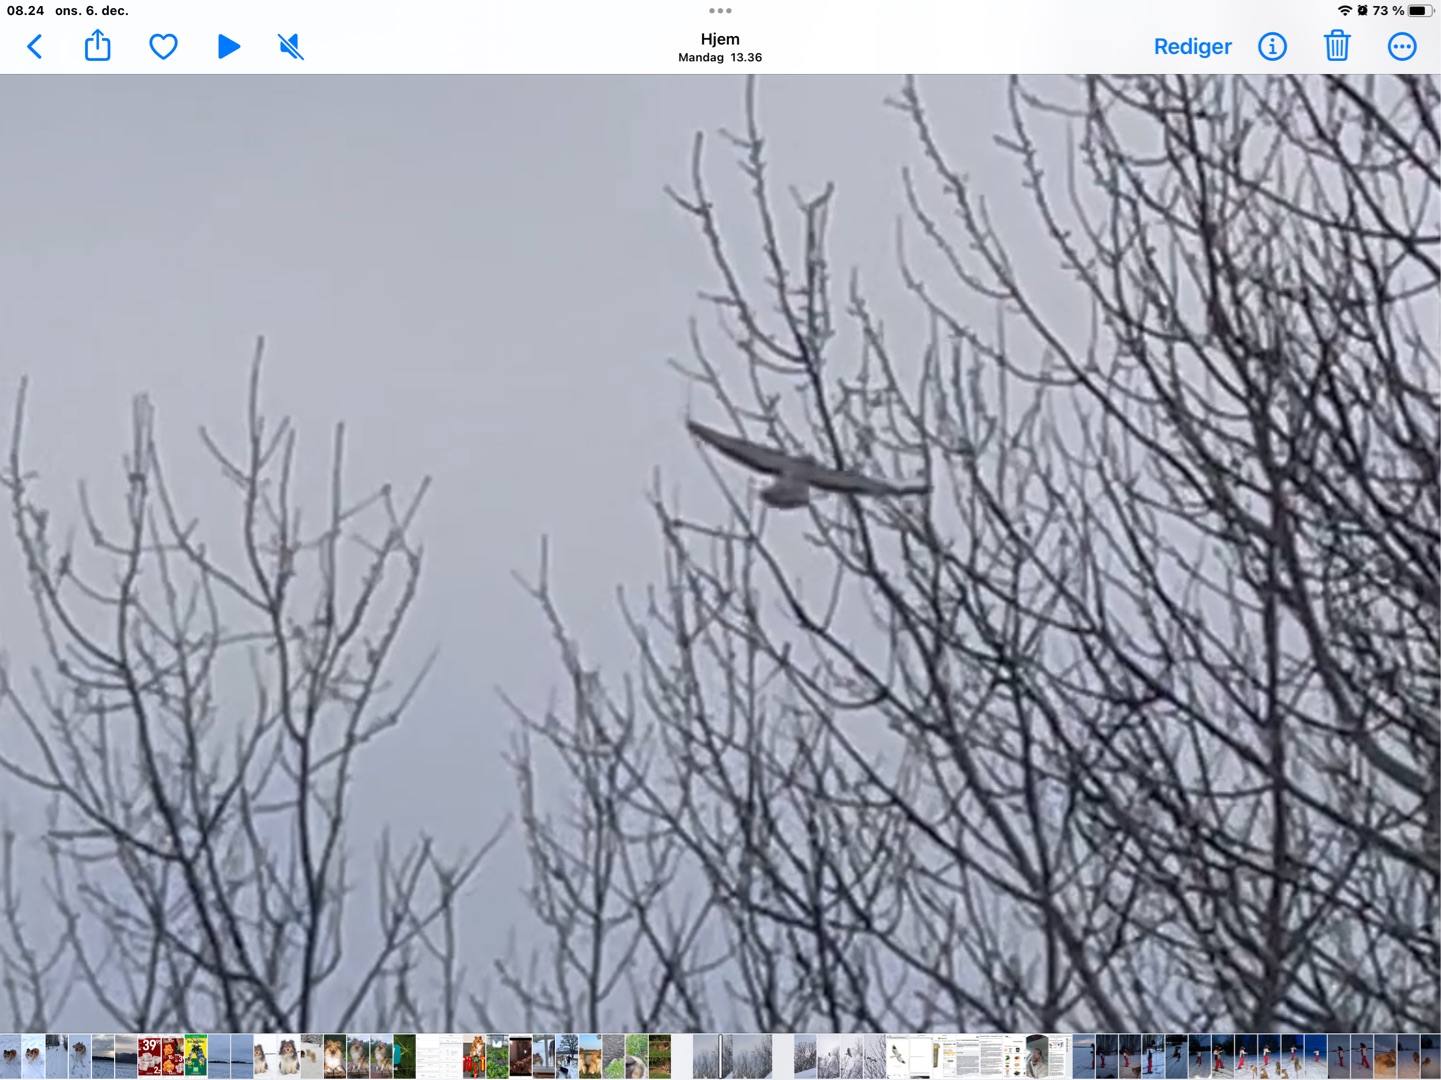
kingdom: Animalia
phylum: Chordata
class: Aves
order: Accipitriformes
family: Accipitridae
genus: Buteo
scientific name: Buteo buteo
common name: Musvåge
